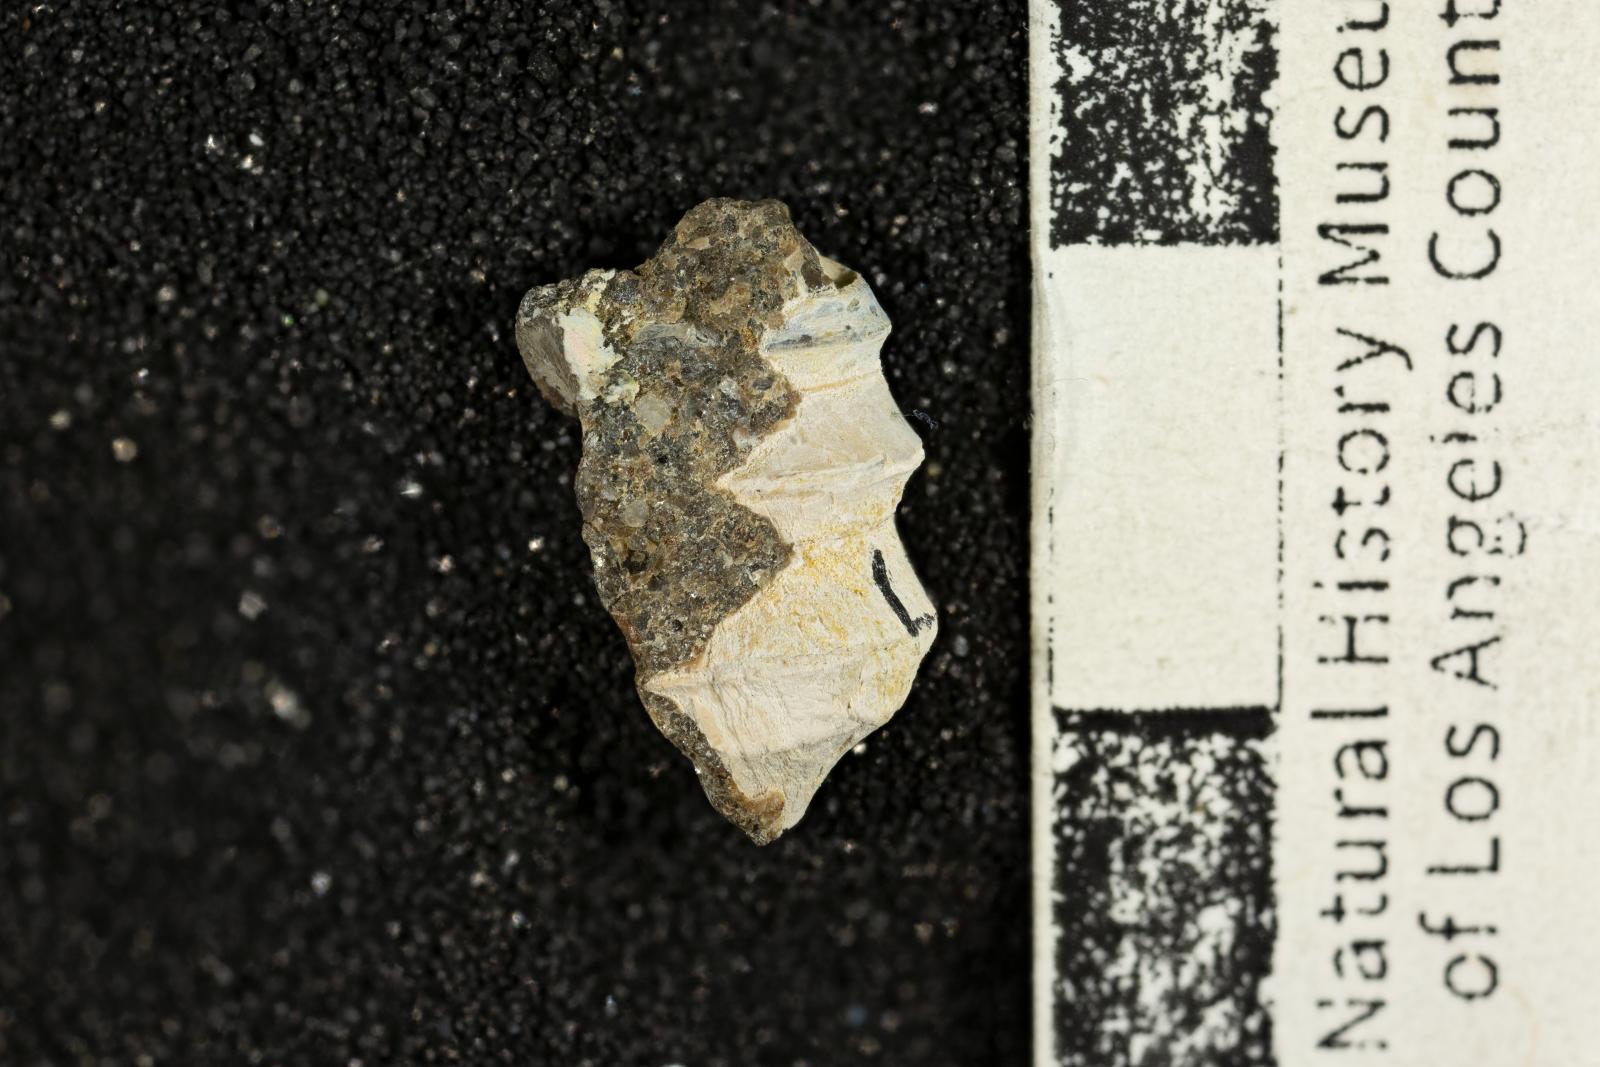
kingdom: Animalia
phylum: Mollusca
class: Gastropoda
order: Littorinimorpha
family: Capulidae
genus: Paxitropis
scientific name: Paxitropis dicriota
